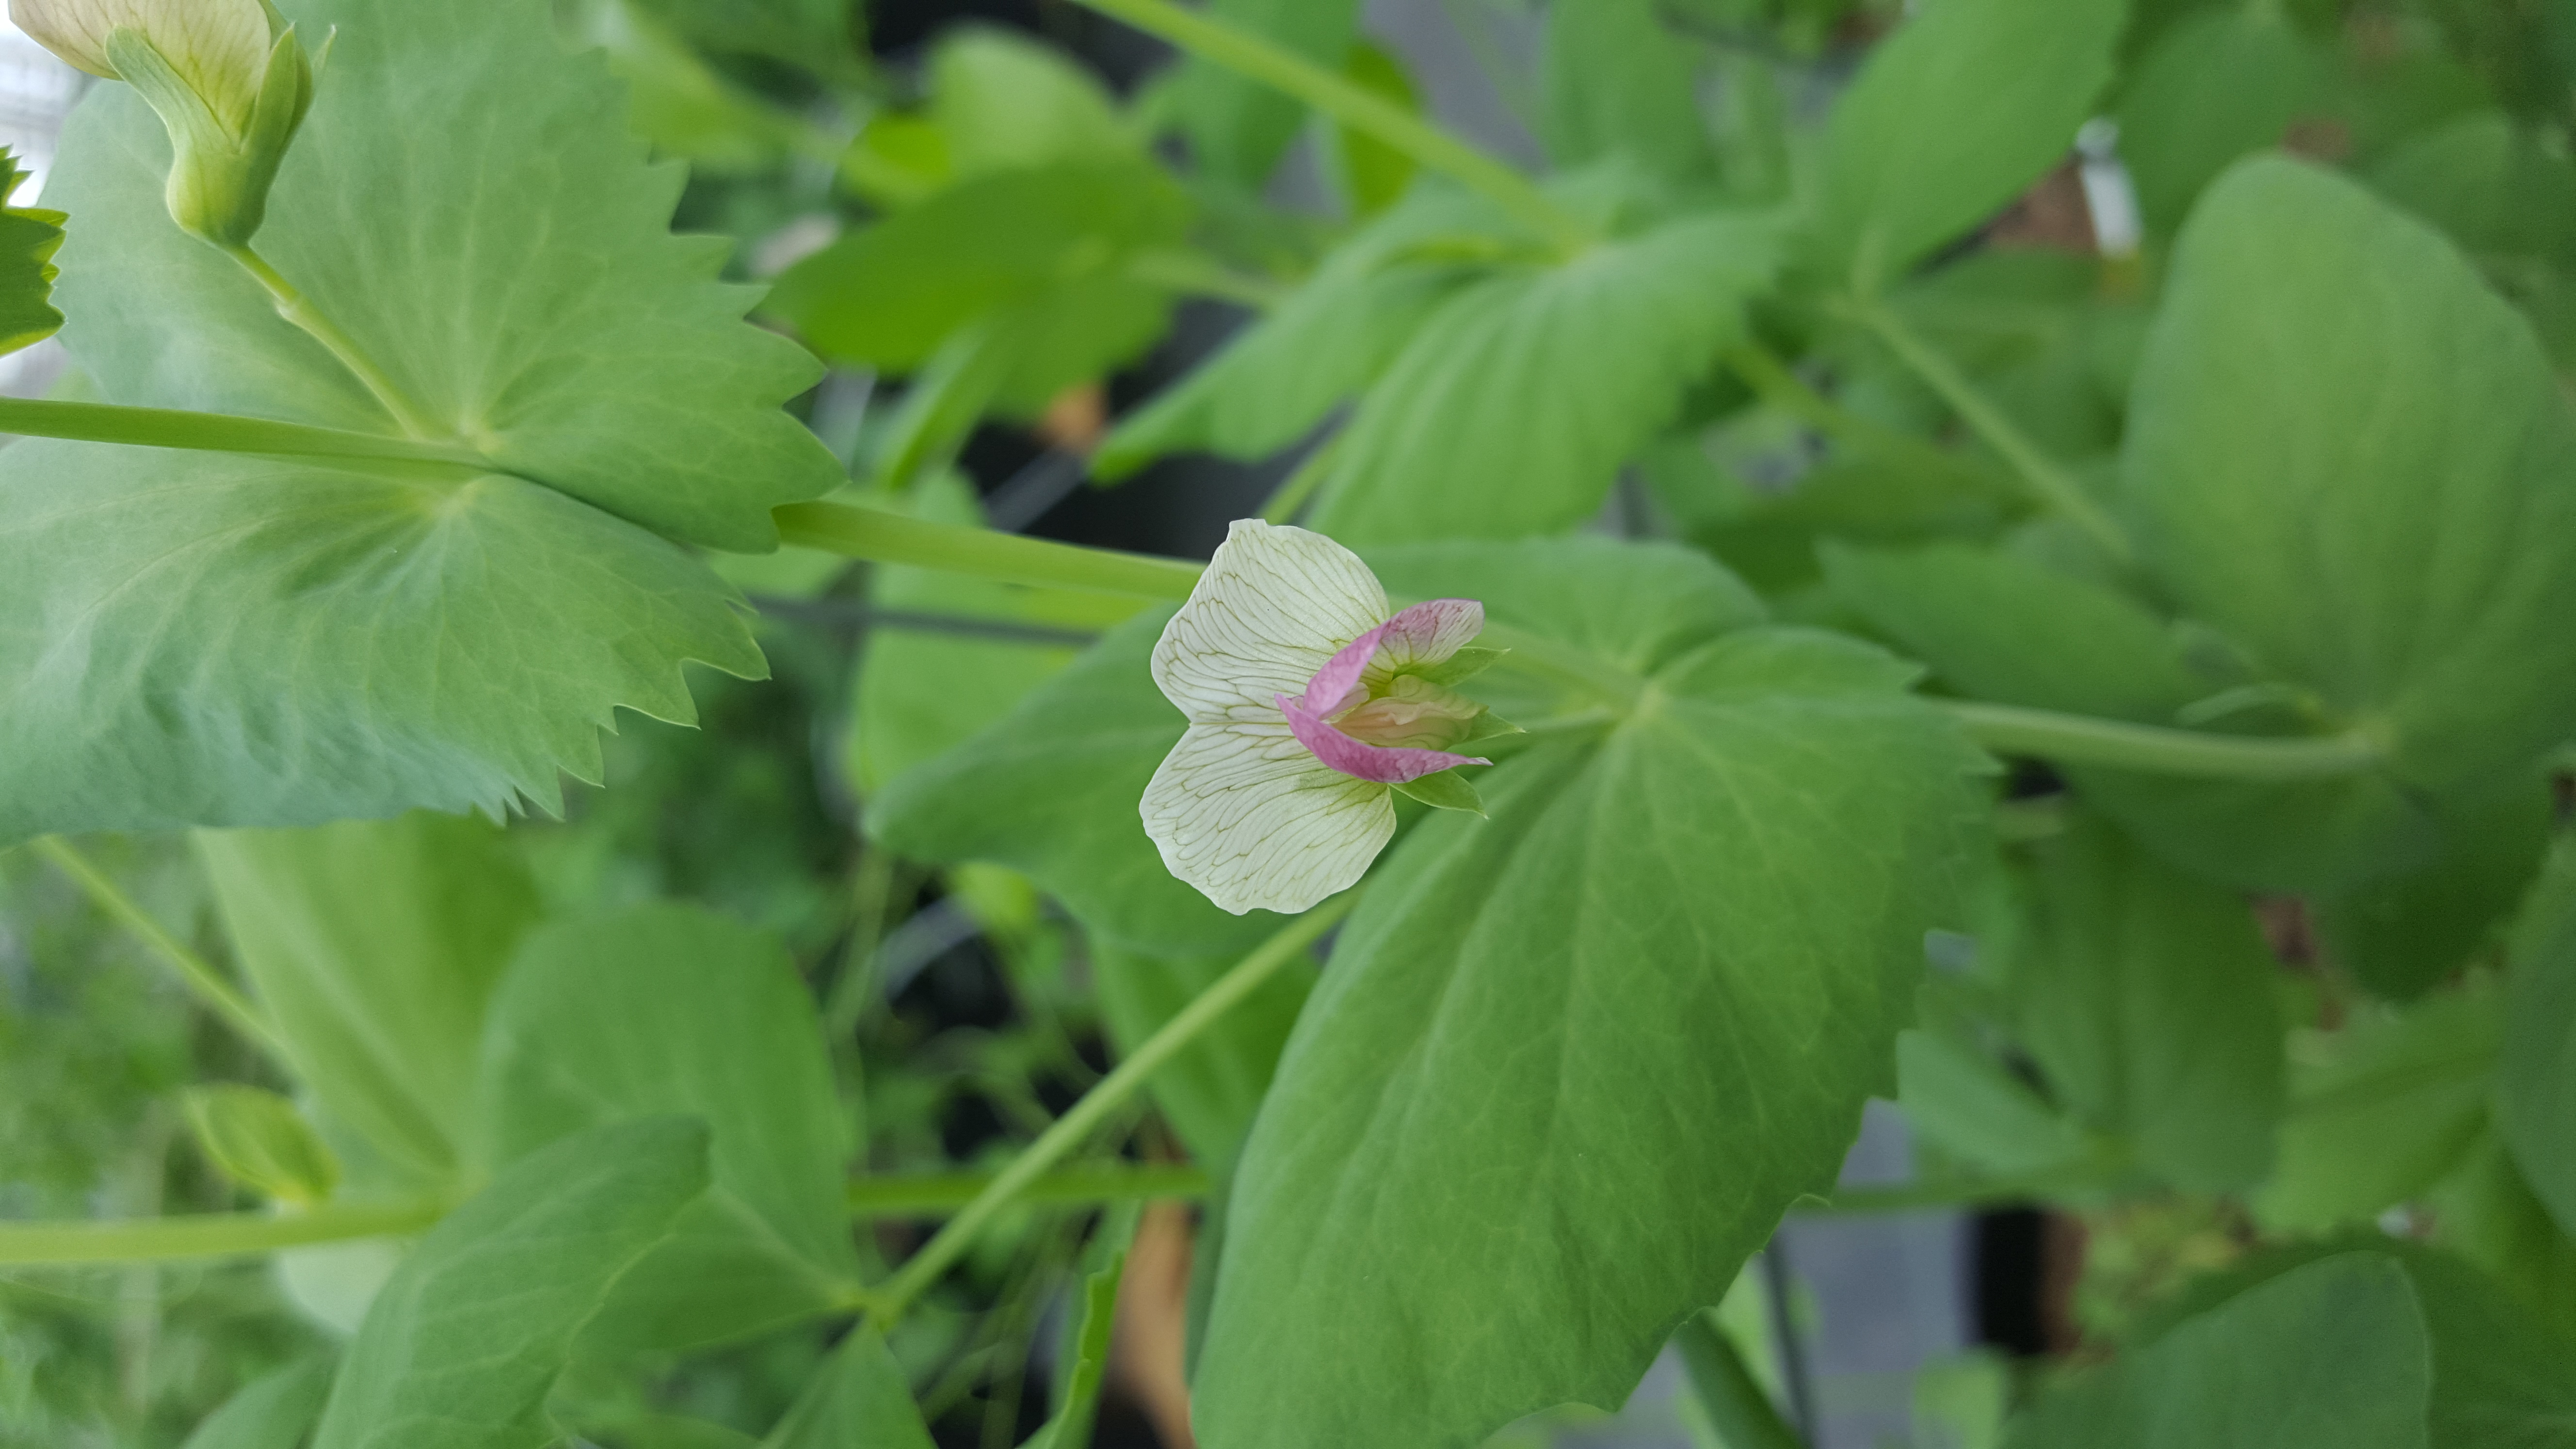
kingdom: Plantae
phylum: Tracheophyta
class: Magnoliopsida
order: Fabales
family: Fabaceae
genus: Lathyrus
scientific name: Lathyrus oleraceus
